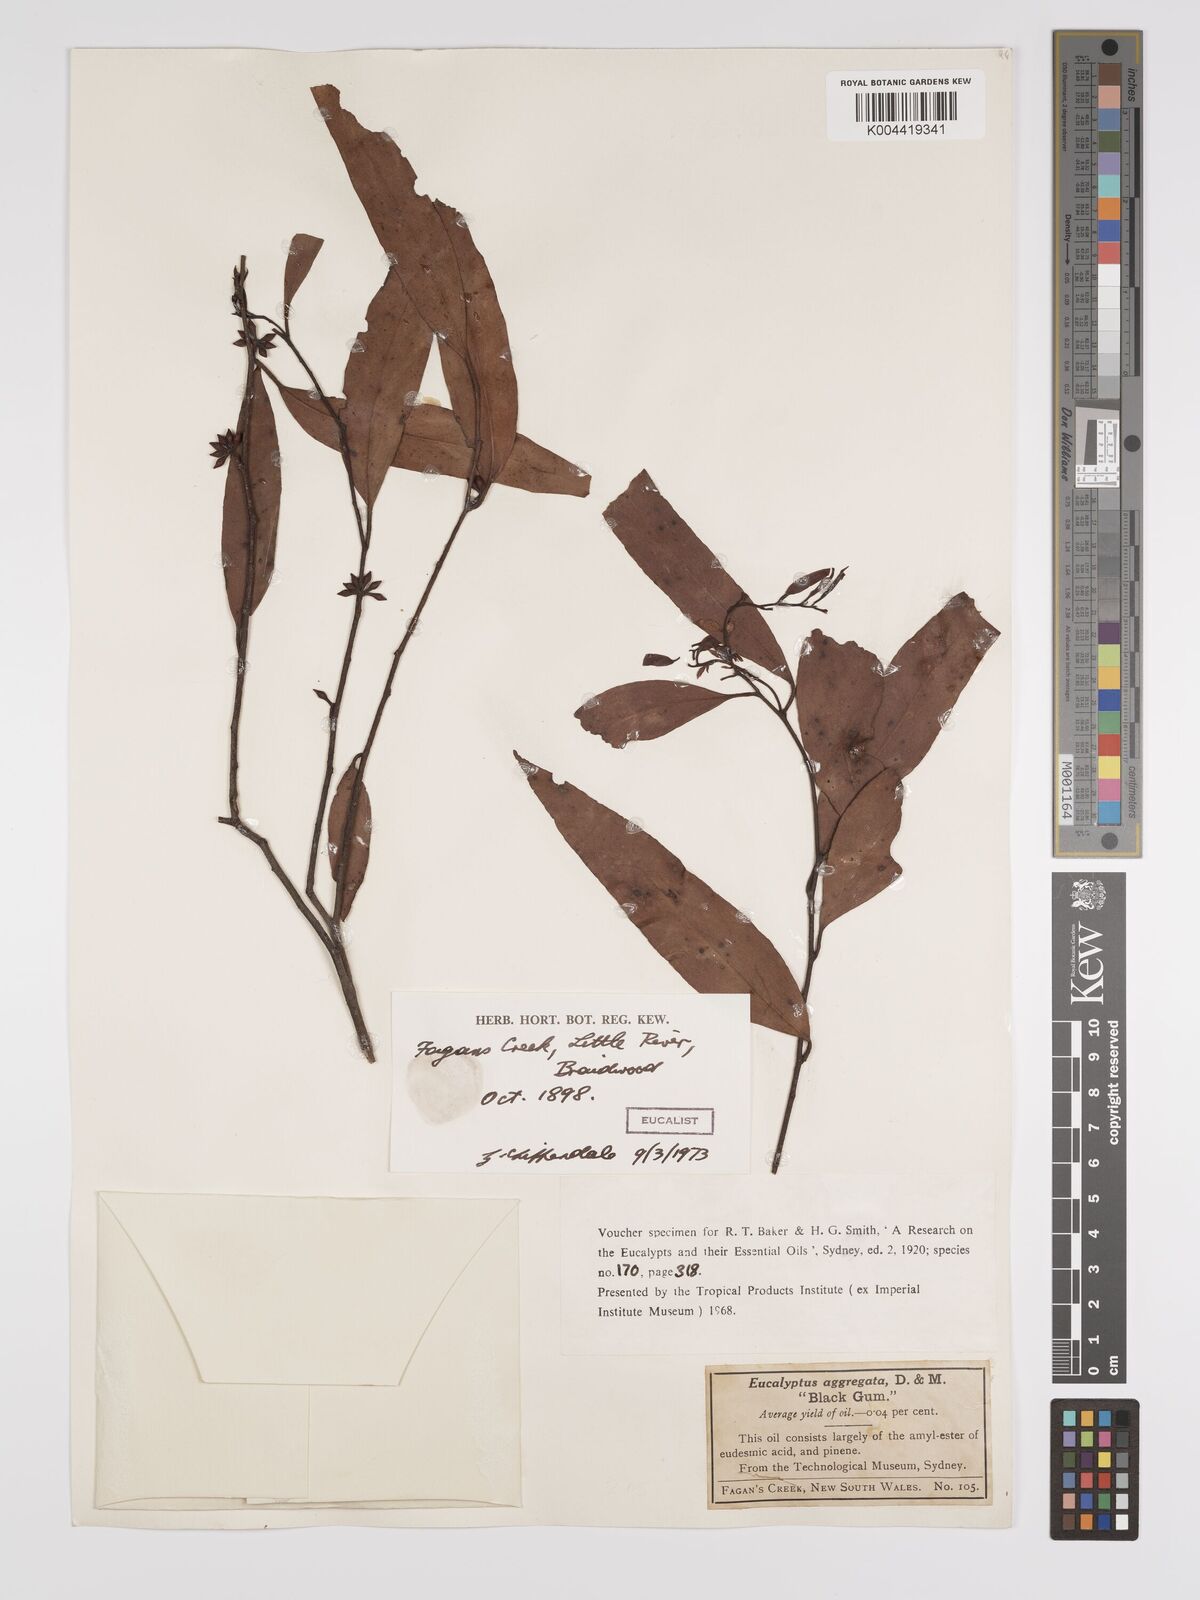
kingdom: Plantae
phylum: Tracheophyta
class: Magnoliopsida
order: Myrtales
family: Myrtaceae
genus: Eucalyptus
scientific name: Eucalyptus aggregata
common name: Black gum
